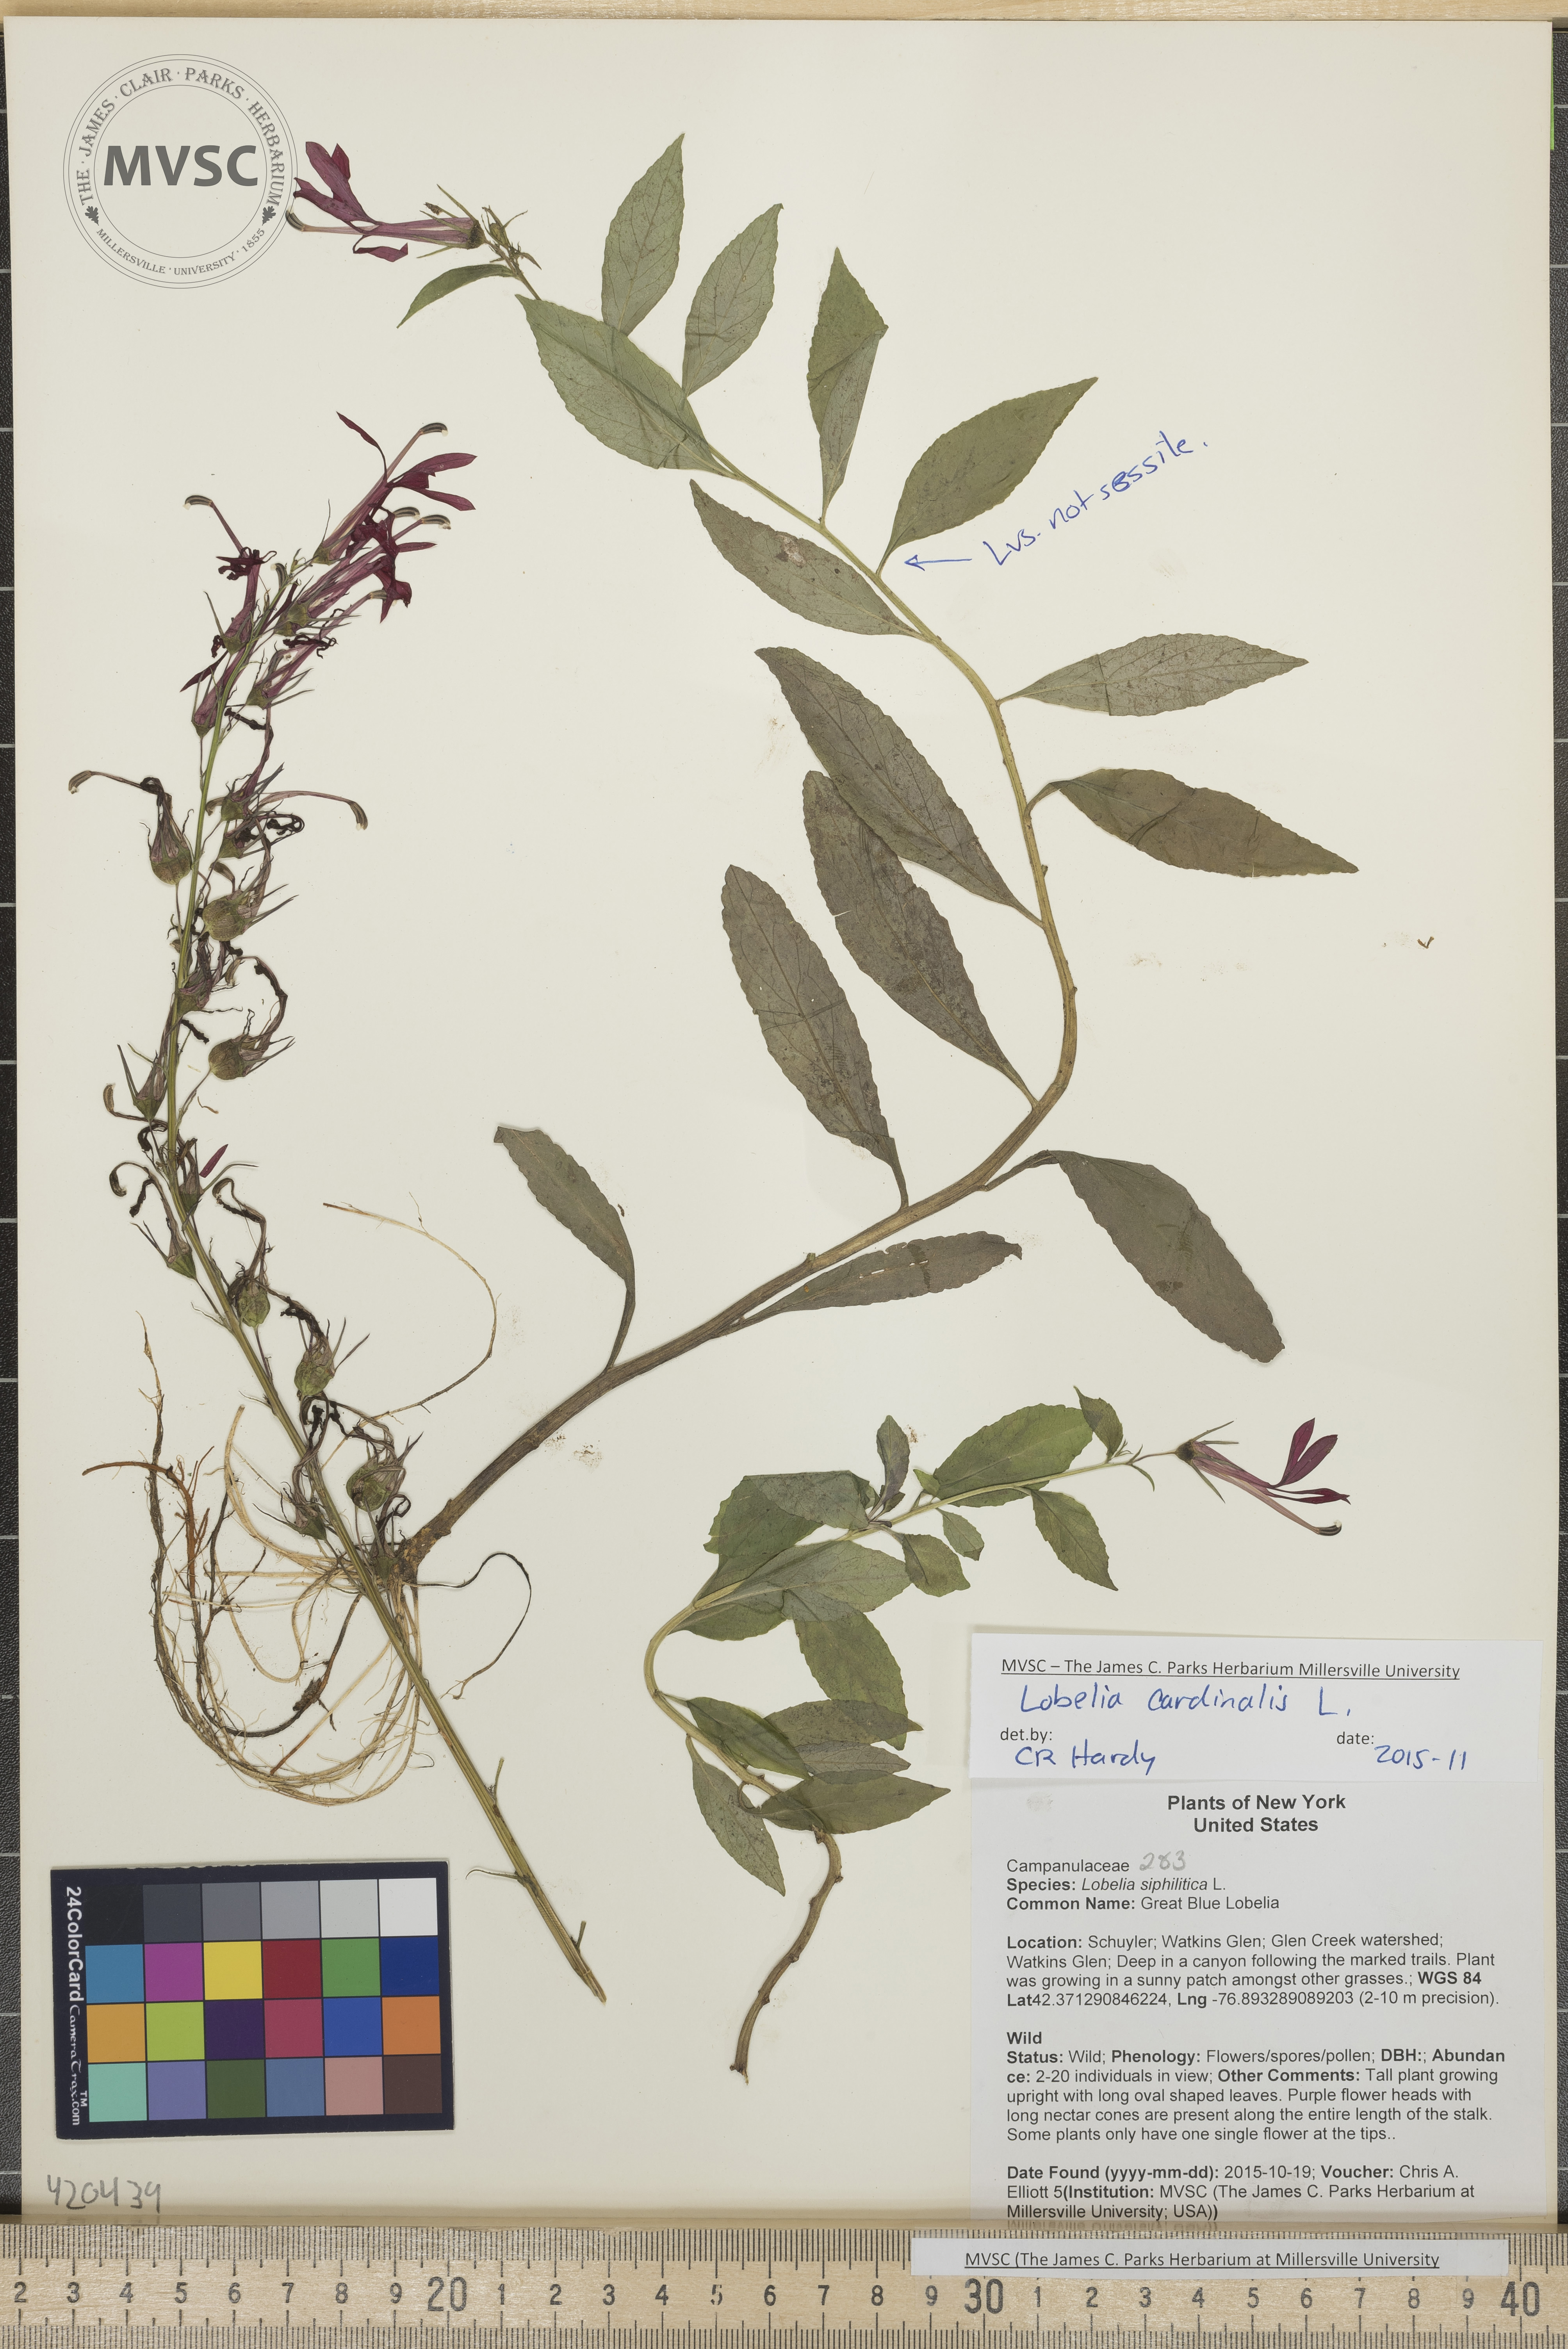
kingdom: Plantae
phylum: Tracheophyta
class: Magnoliopsida
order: Asterales
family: Campanulaceae
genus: Lobelia
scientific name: Lobelia cardinalis
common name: Cardinal flower
